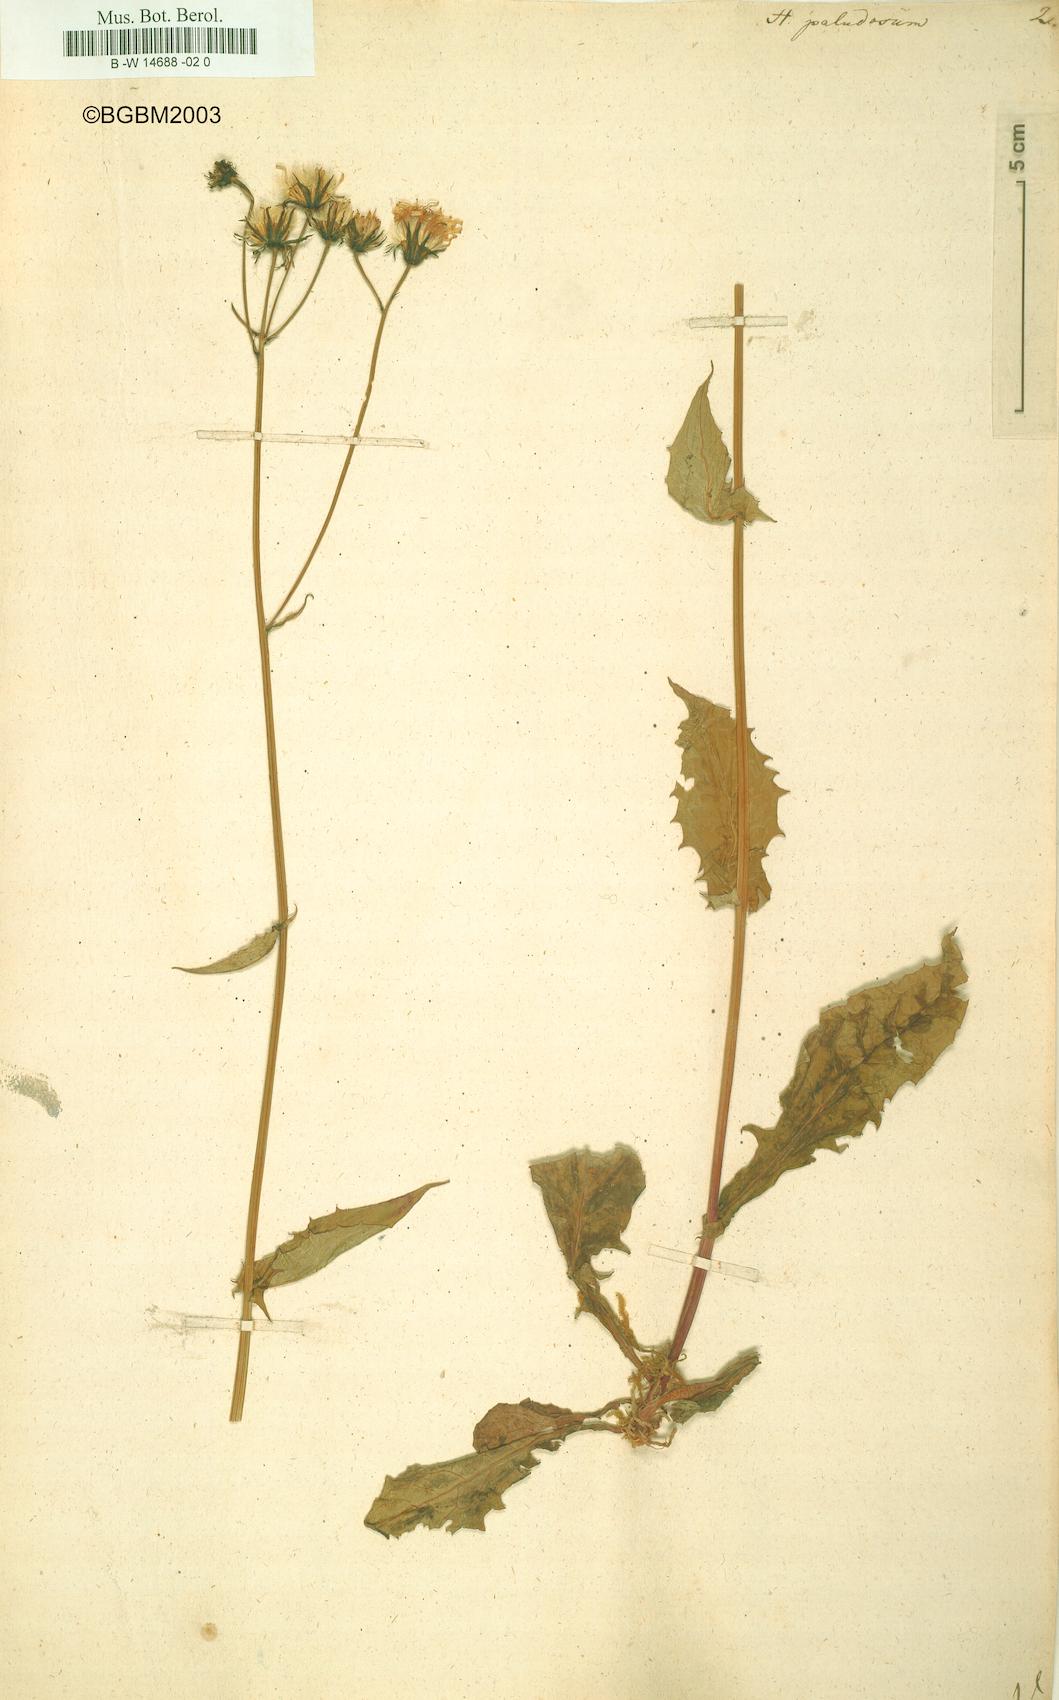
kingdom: Plantae
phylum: Tracheophyta
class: Magnoliopsida
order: Asterales
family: Asteraceae
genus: Crepis
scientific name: Crepis paludosa
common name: Marsh hawk's-beard
